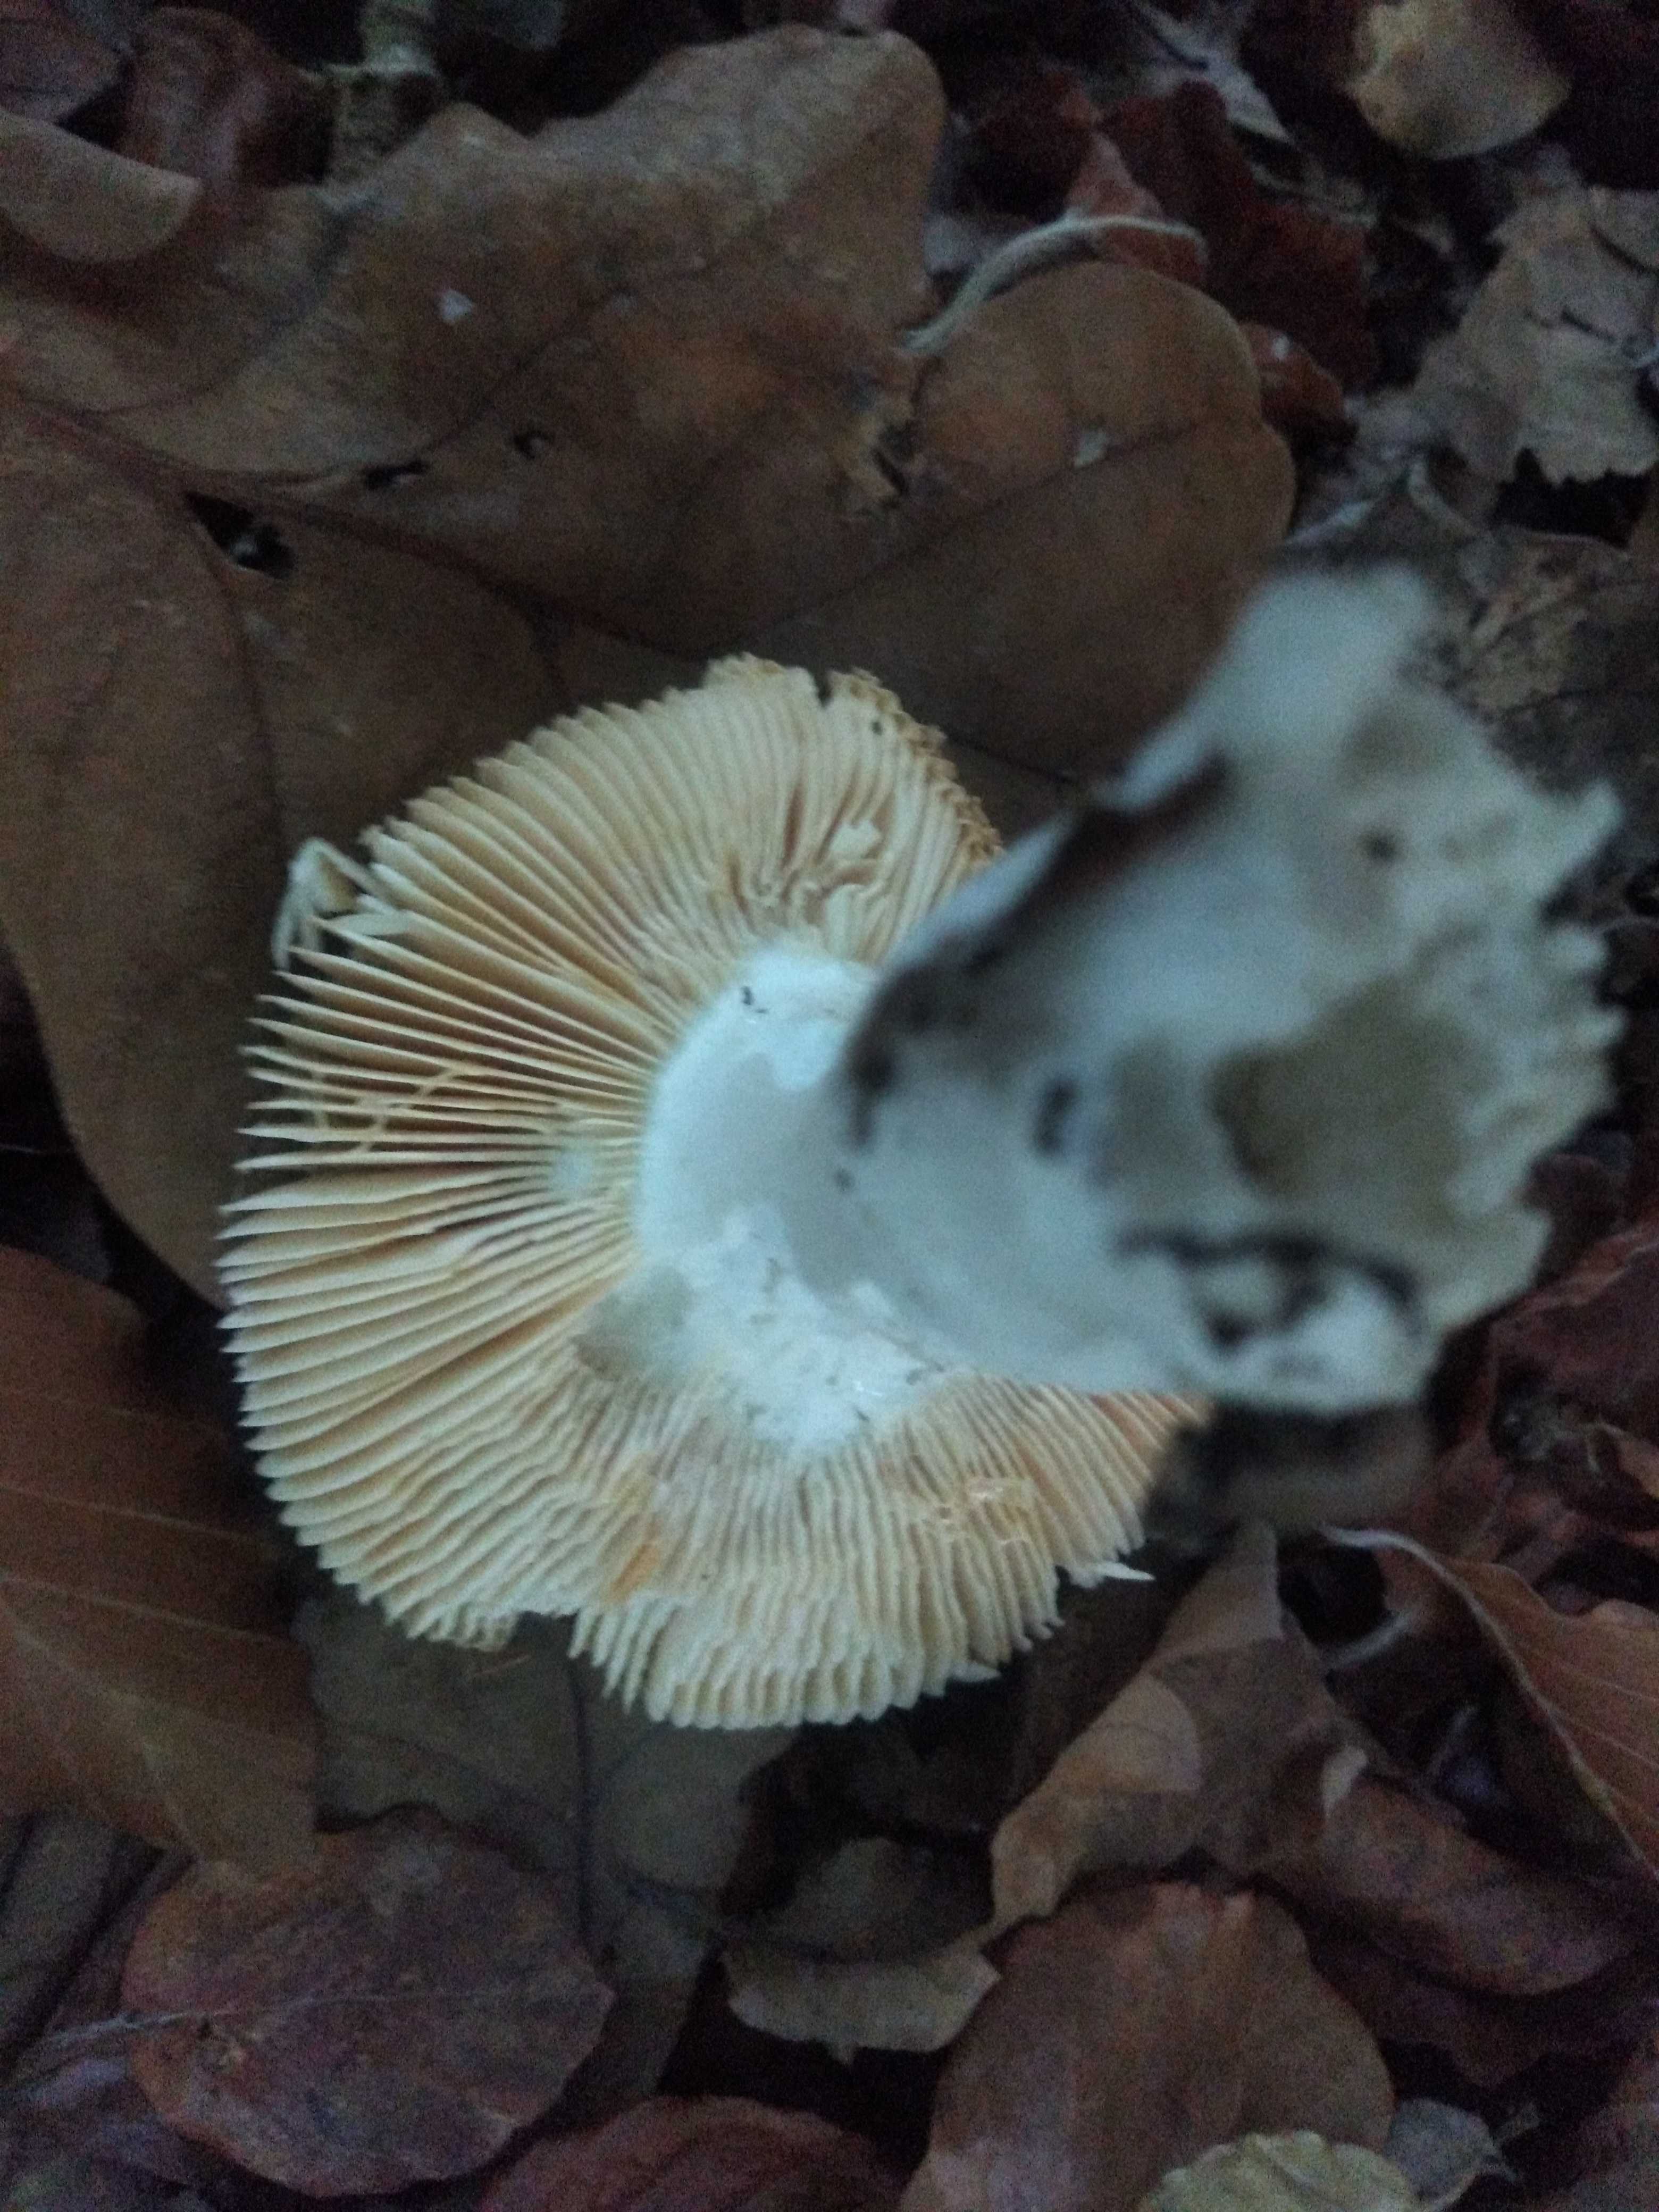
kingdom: Fungi
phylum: Basidiomycota
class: Agaricomycetes
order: Russulales
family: Russulaceae
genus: Russula
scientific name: Russula
